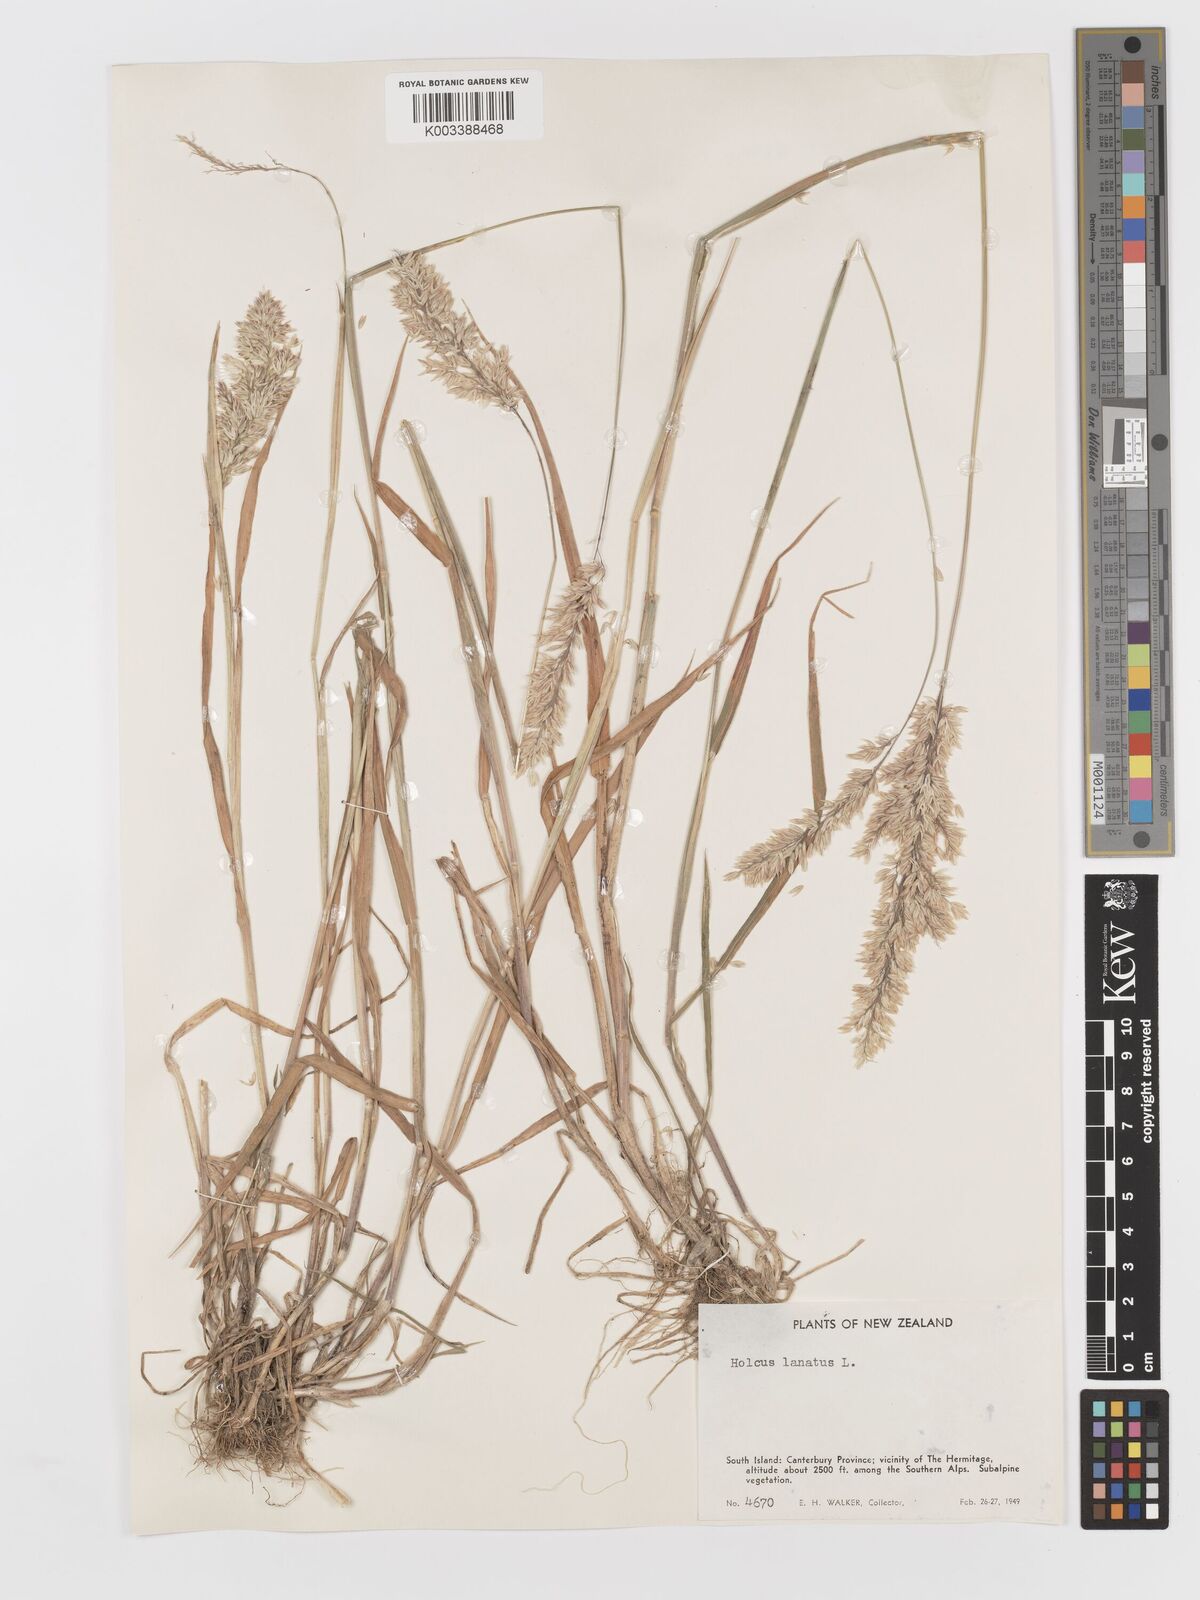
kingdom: Plantae
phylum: Tracheophyta
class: Liliopsida
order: Poales
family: Poaceae
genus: Holcus
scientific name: Holcus lanatus
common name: Yorkshire-fog
